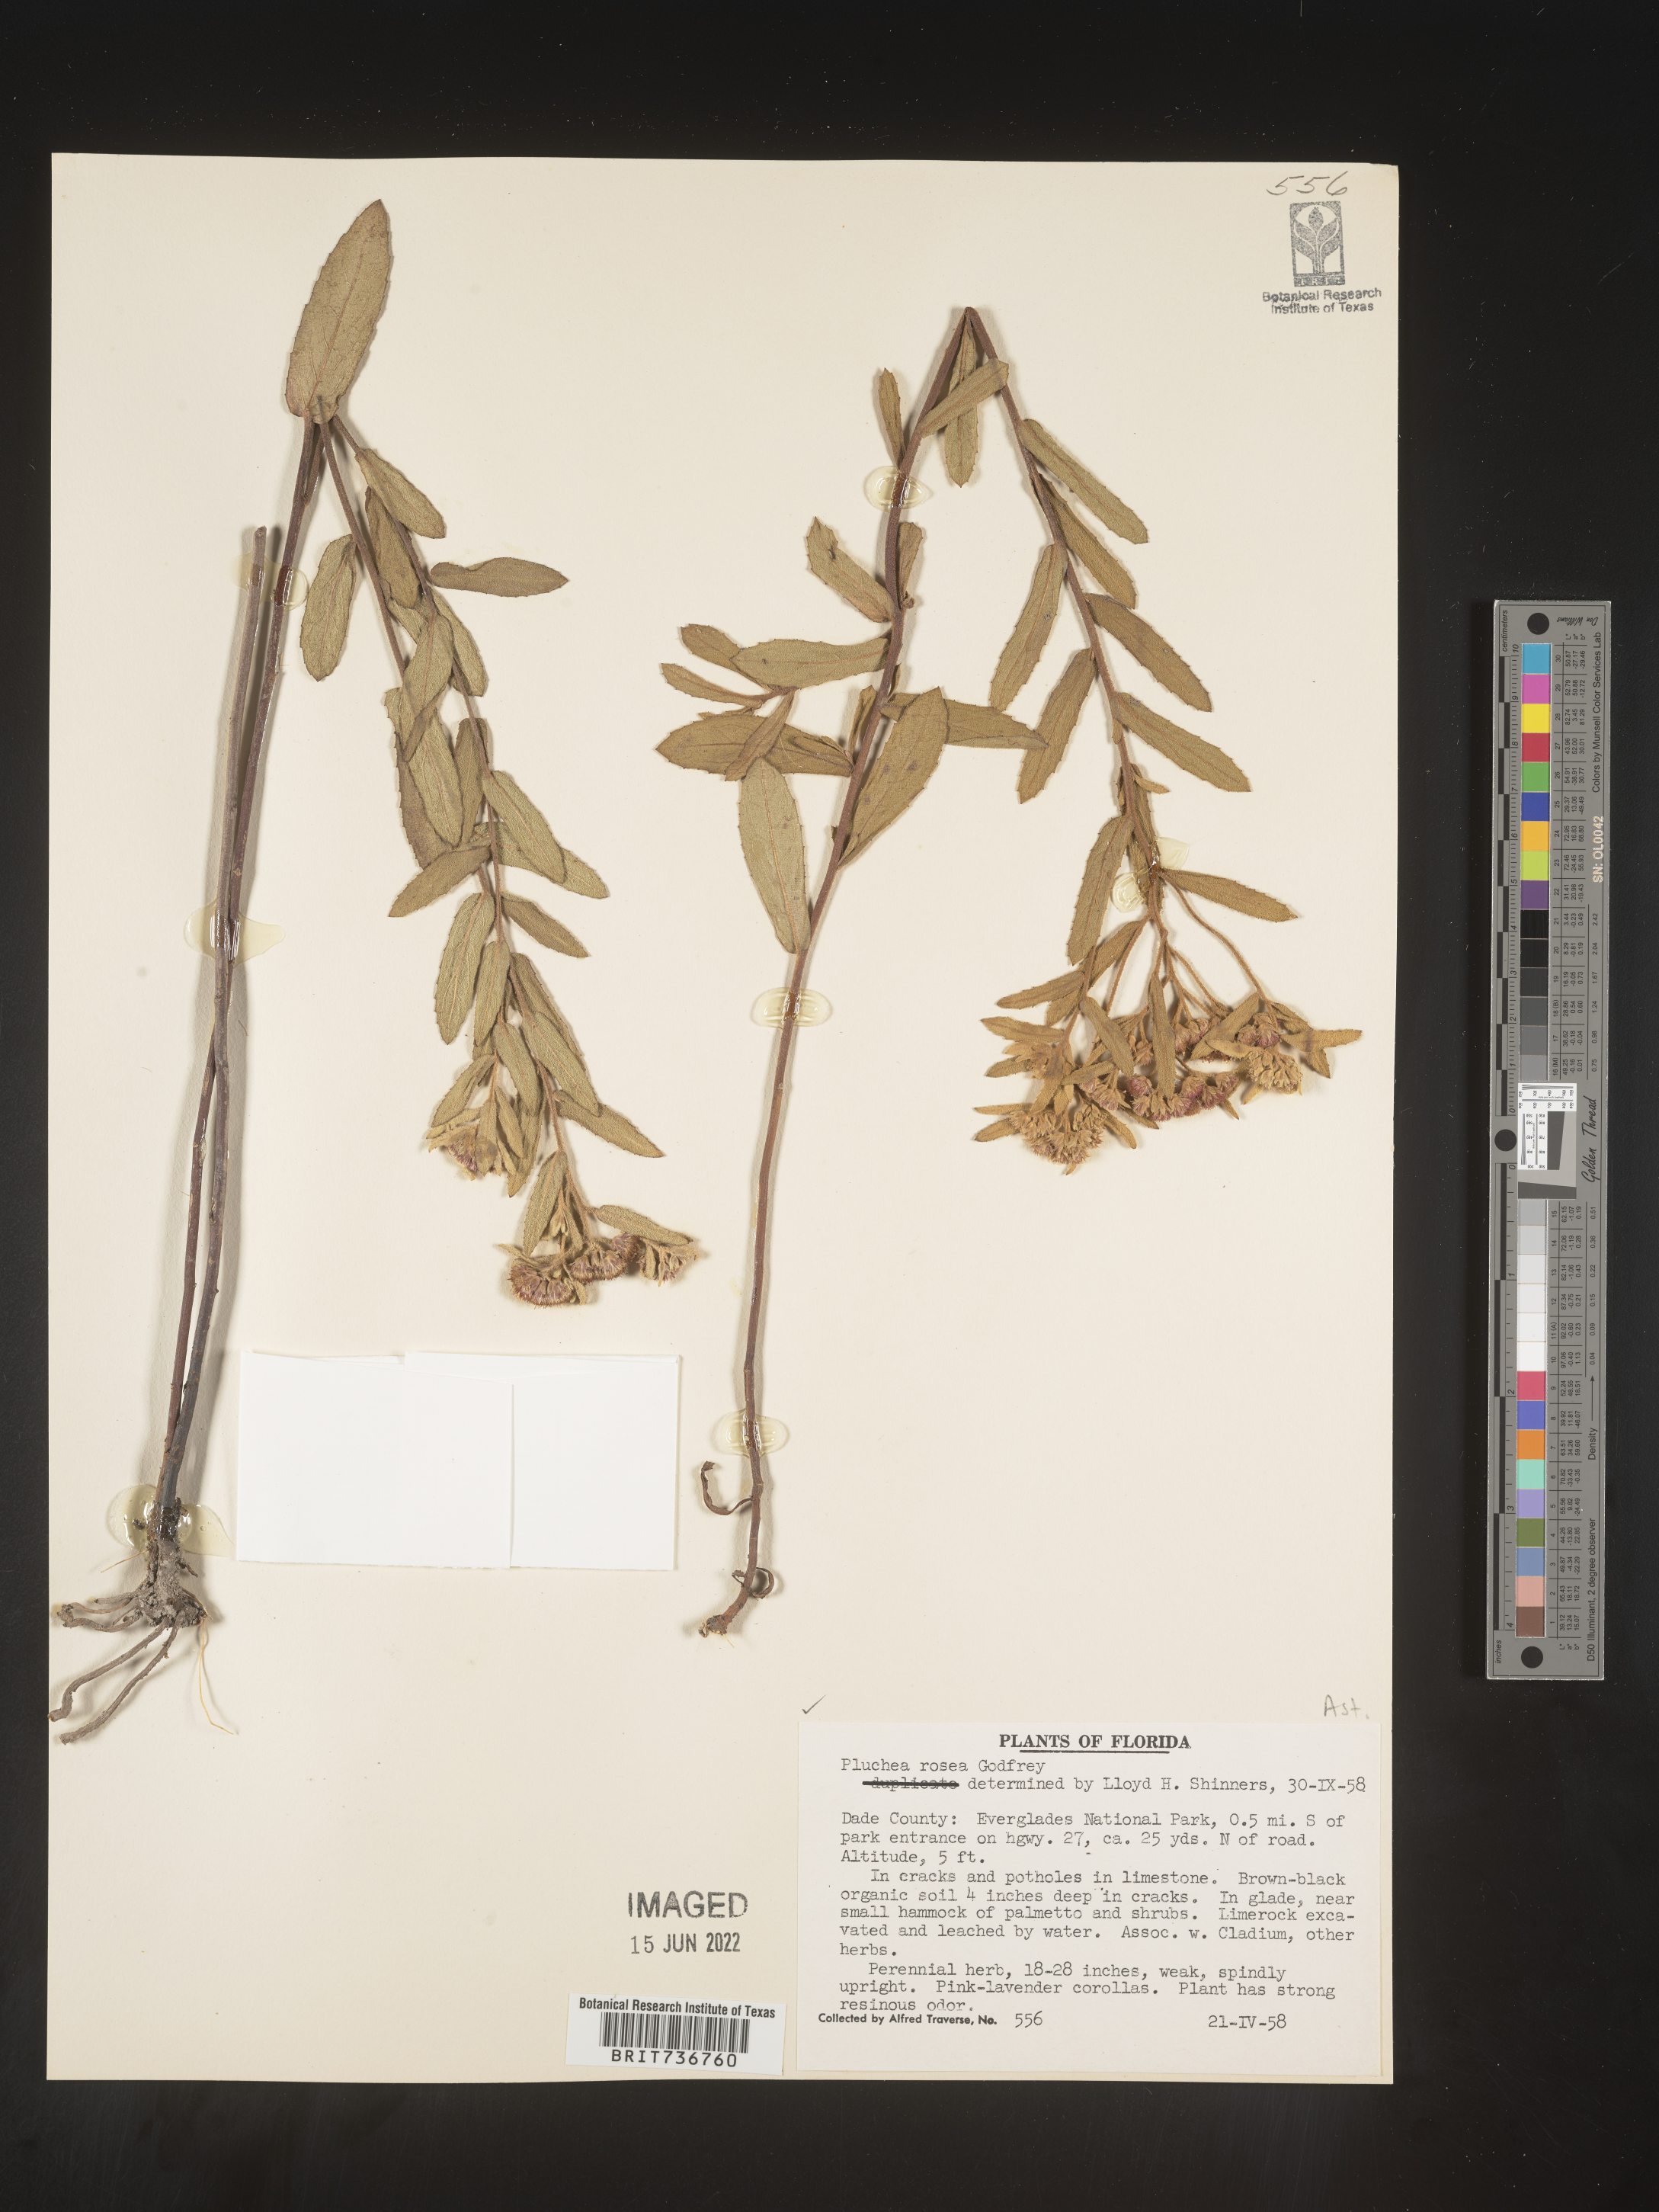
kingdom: Plantae
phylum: Tracheophyta
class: Magnoliopsida
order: Asterales
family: Asteraceae
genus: Pluchea
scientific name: Pluchea baccharis
